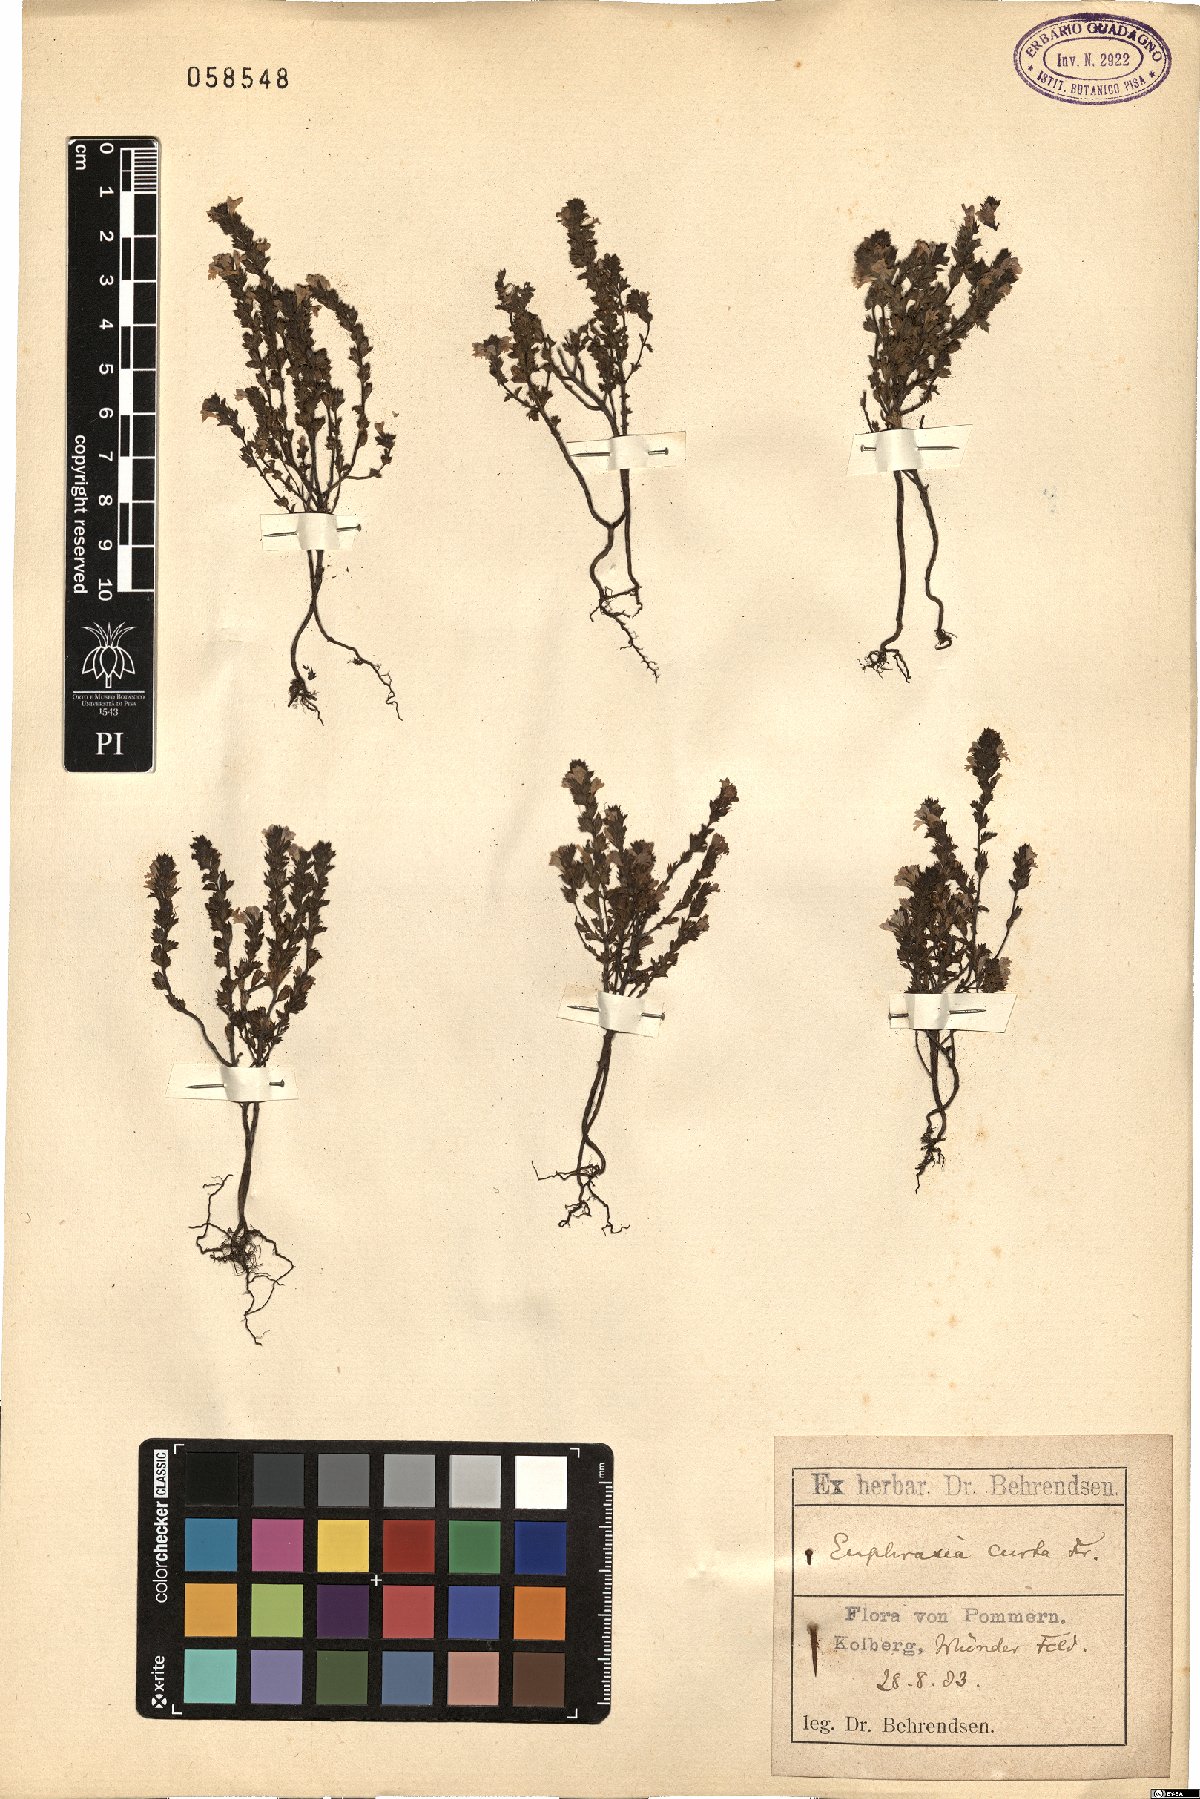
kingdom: Plantae
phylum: Tracheophyta
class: Magnoliopsida
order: Lamiales
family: Orobanchaceae
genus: Euphrasia
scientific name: Euphrasia micrantha
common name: Northern eyebright
